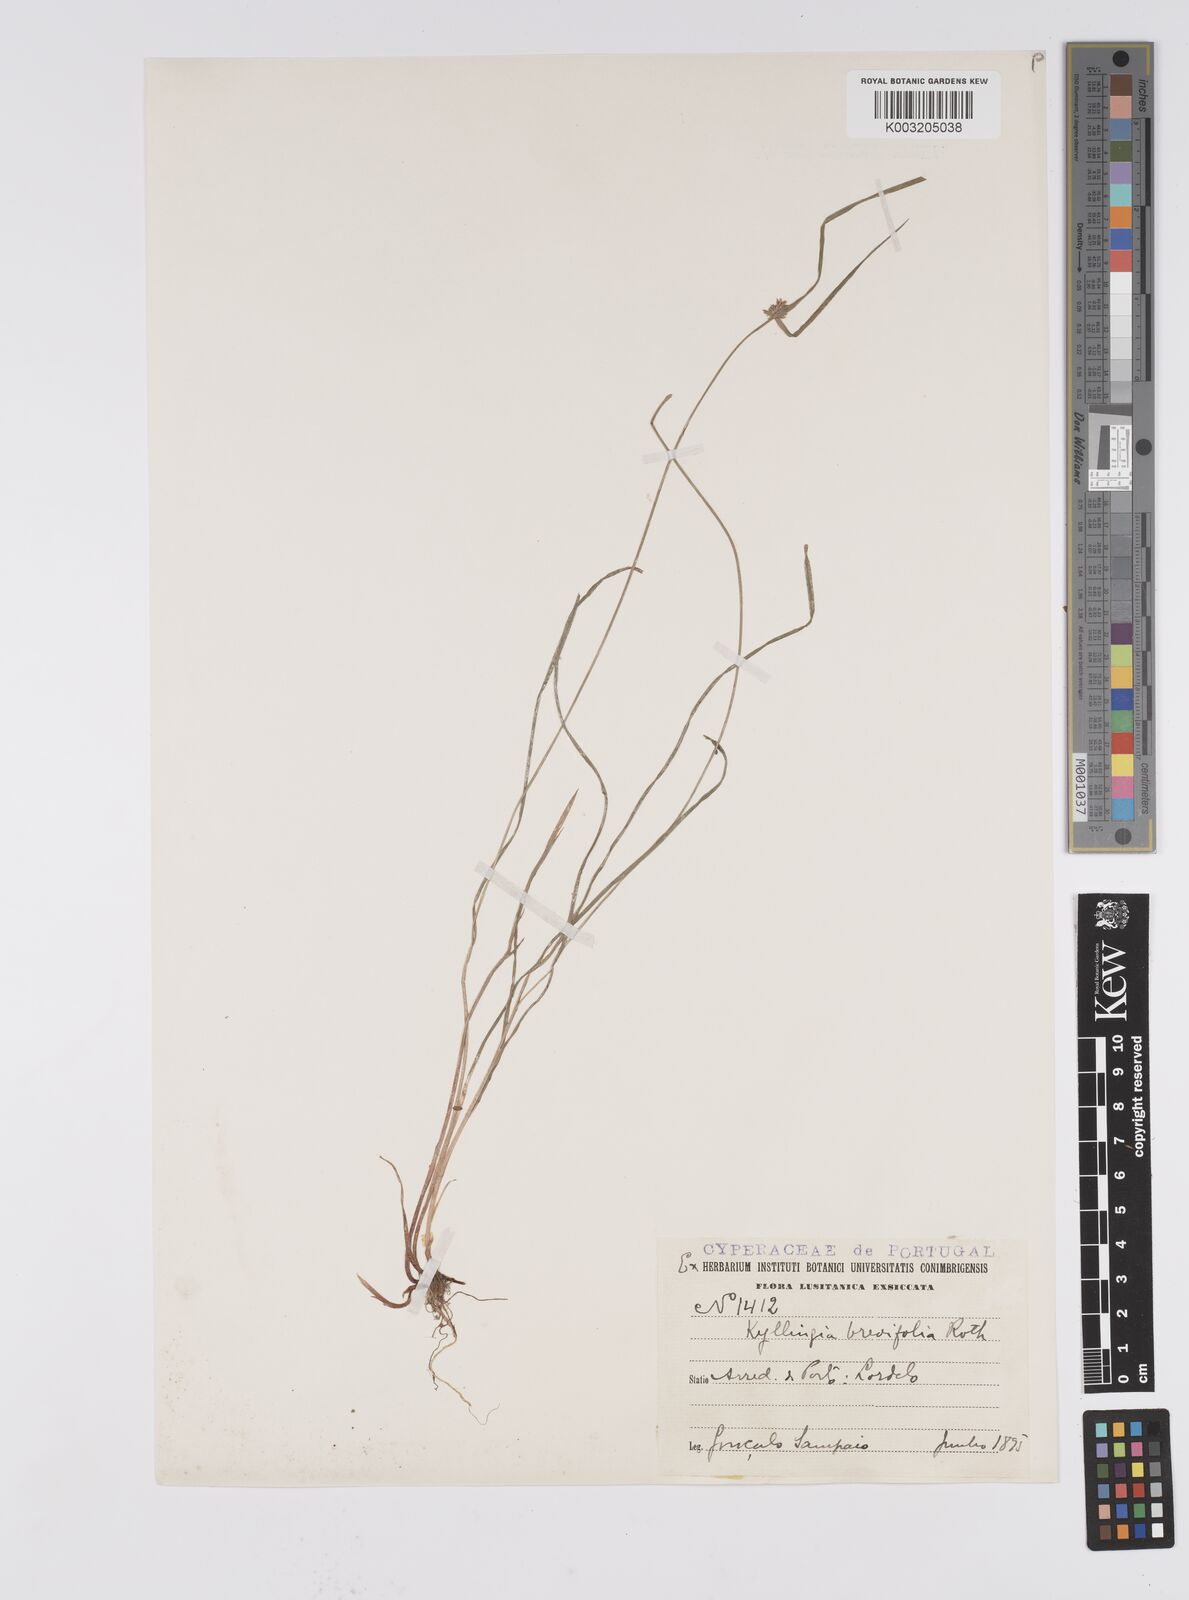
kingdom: Plantae
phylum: Tracheophyta
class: Liliopsida
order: Poales
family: Cyperaceae
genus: Cyperus
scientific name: Cyperus brevifolius
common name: Globe kyllinga
